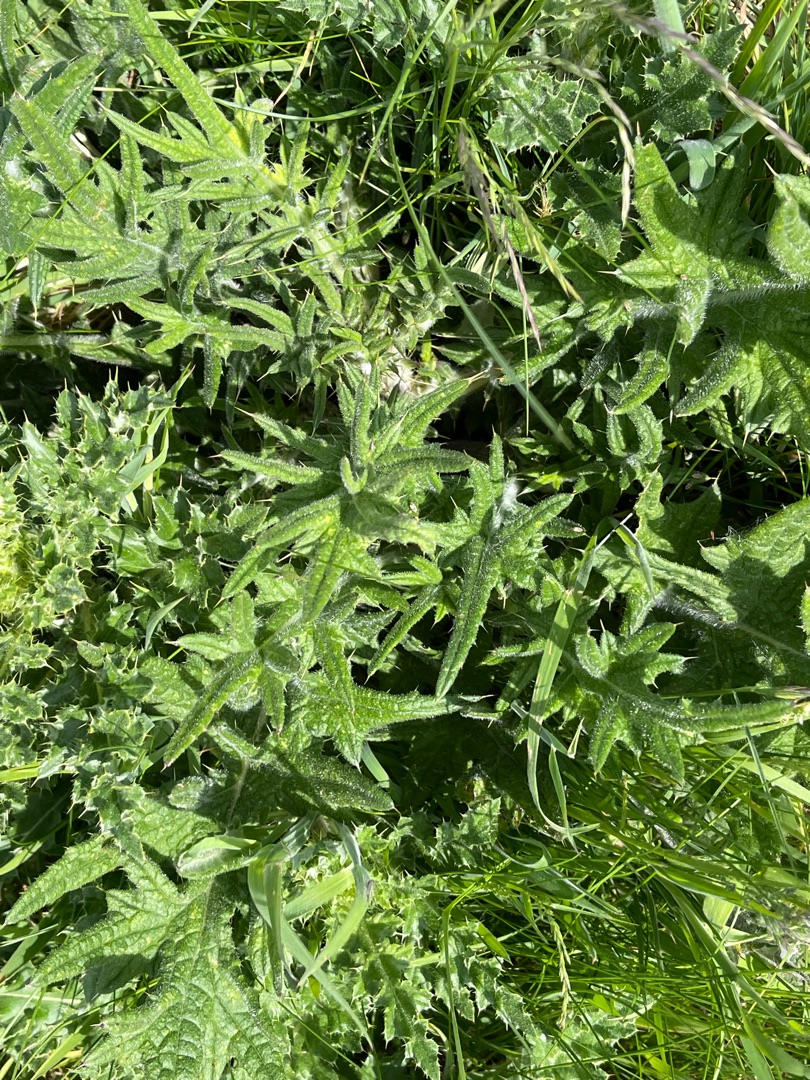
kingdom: Plantae
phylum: Tracheophyta
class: Magnoliopsida
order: Asterales
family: Asteraceae
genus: Cirsium
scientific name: Cirsium vulgare
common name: Horse-tidsel
